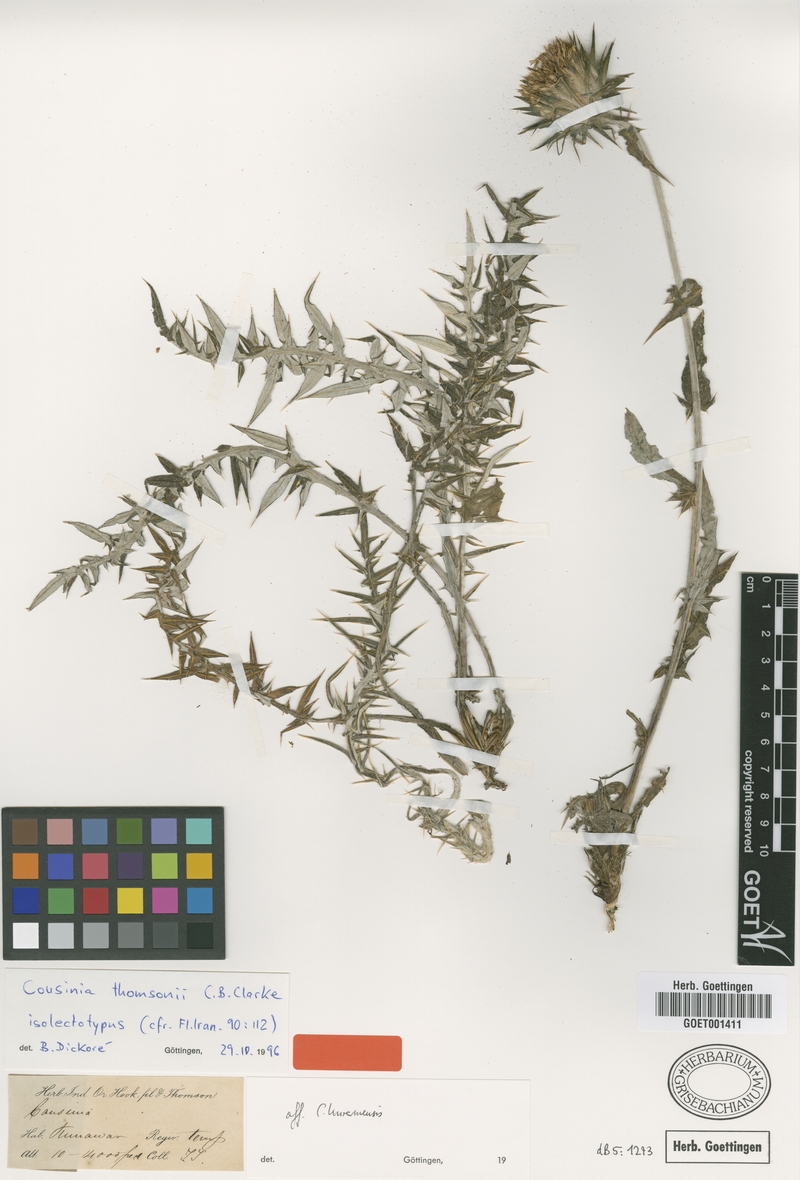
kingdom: Plantae
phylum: Tracheophyta
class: Magnoliopsida
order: Asterales
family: Asteraceae
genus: Cousinia
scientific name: Cousinia thomsonii
